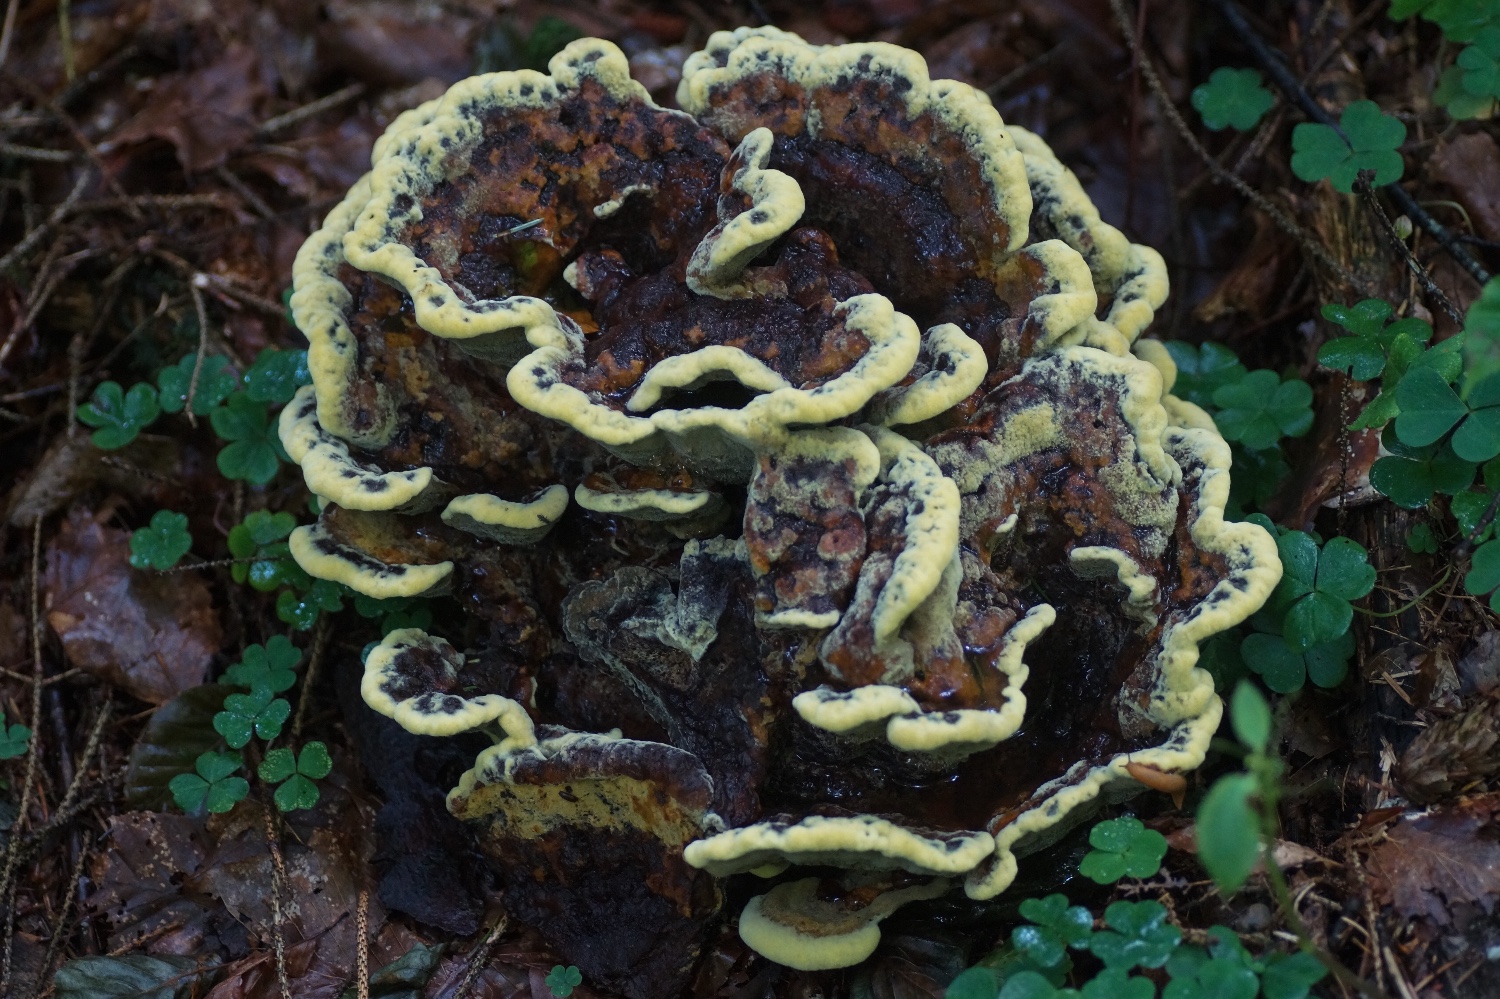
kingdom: Fungi
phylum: Basidiomycota
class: Agaricomycetes
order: Polyporales
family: Laetiporaceae
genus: Phaeolus
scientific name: Phaeolus schweinitzii
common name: brunporesvamp
